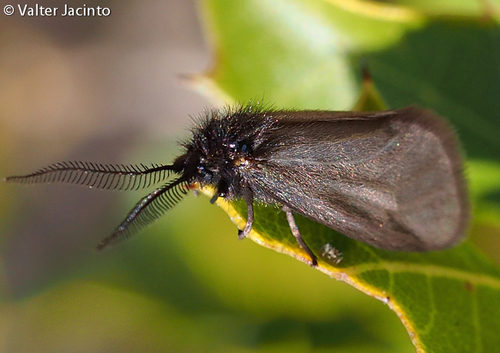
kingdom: Animalia
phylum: Arthropoda
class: Insecta
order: Lepidoptera
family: Heterogynidae
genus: Heterogynis
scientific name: Heterogynis penella
